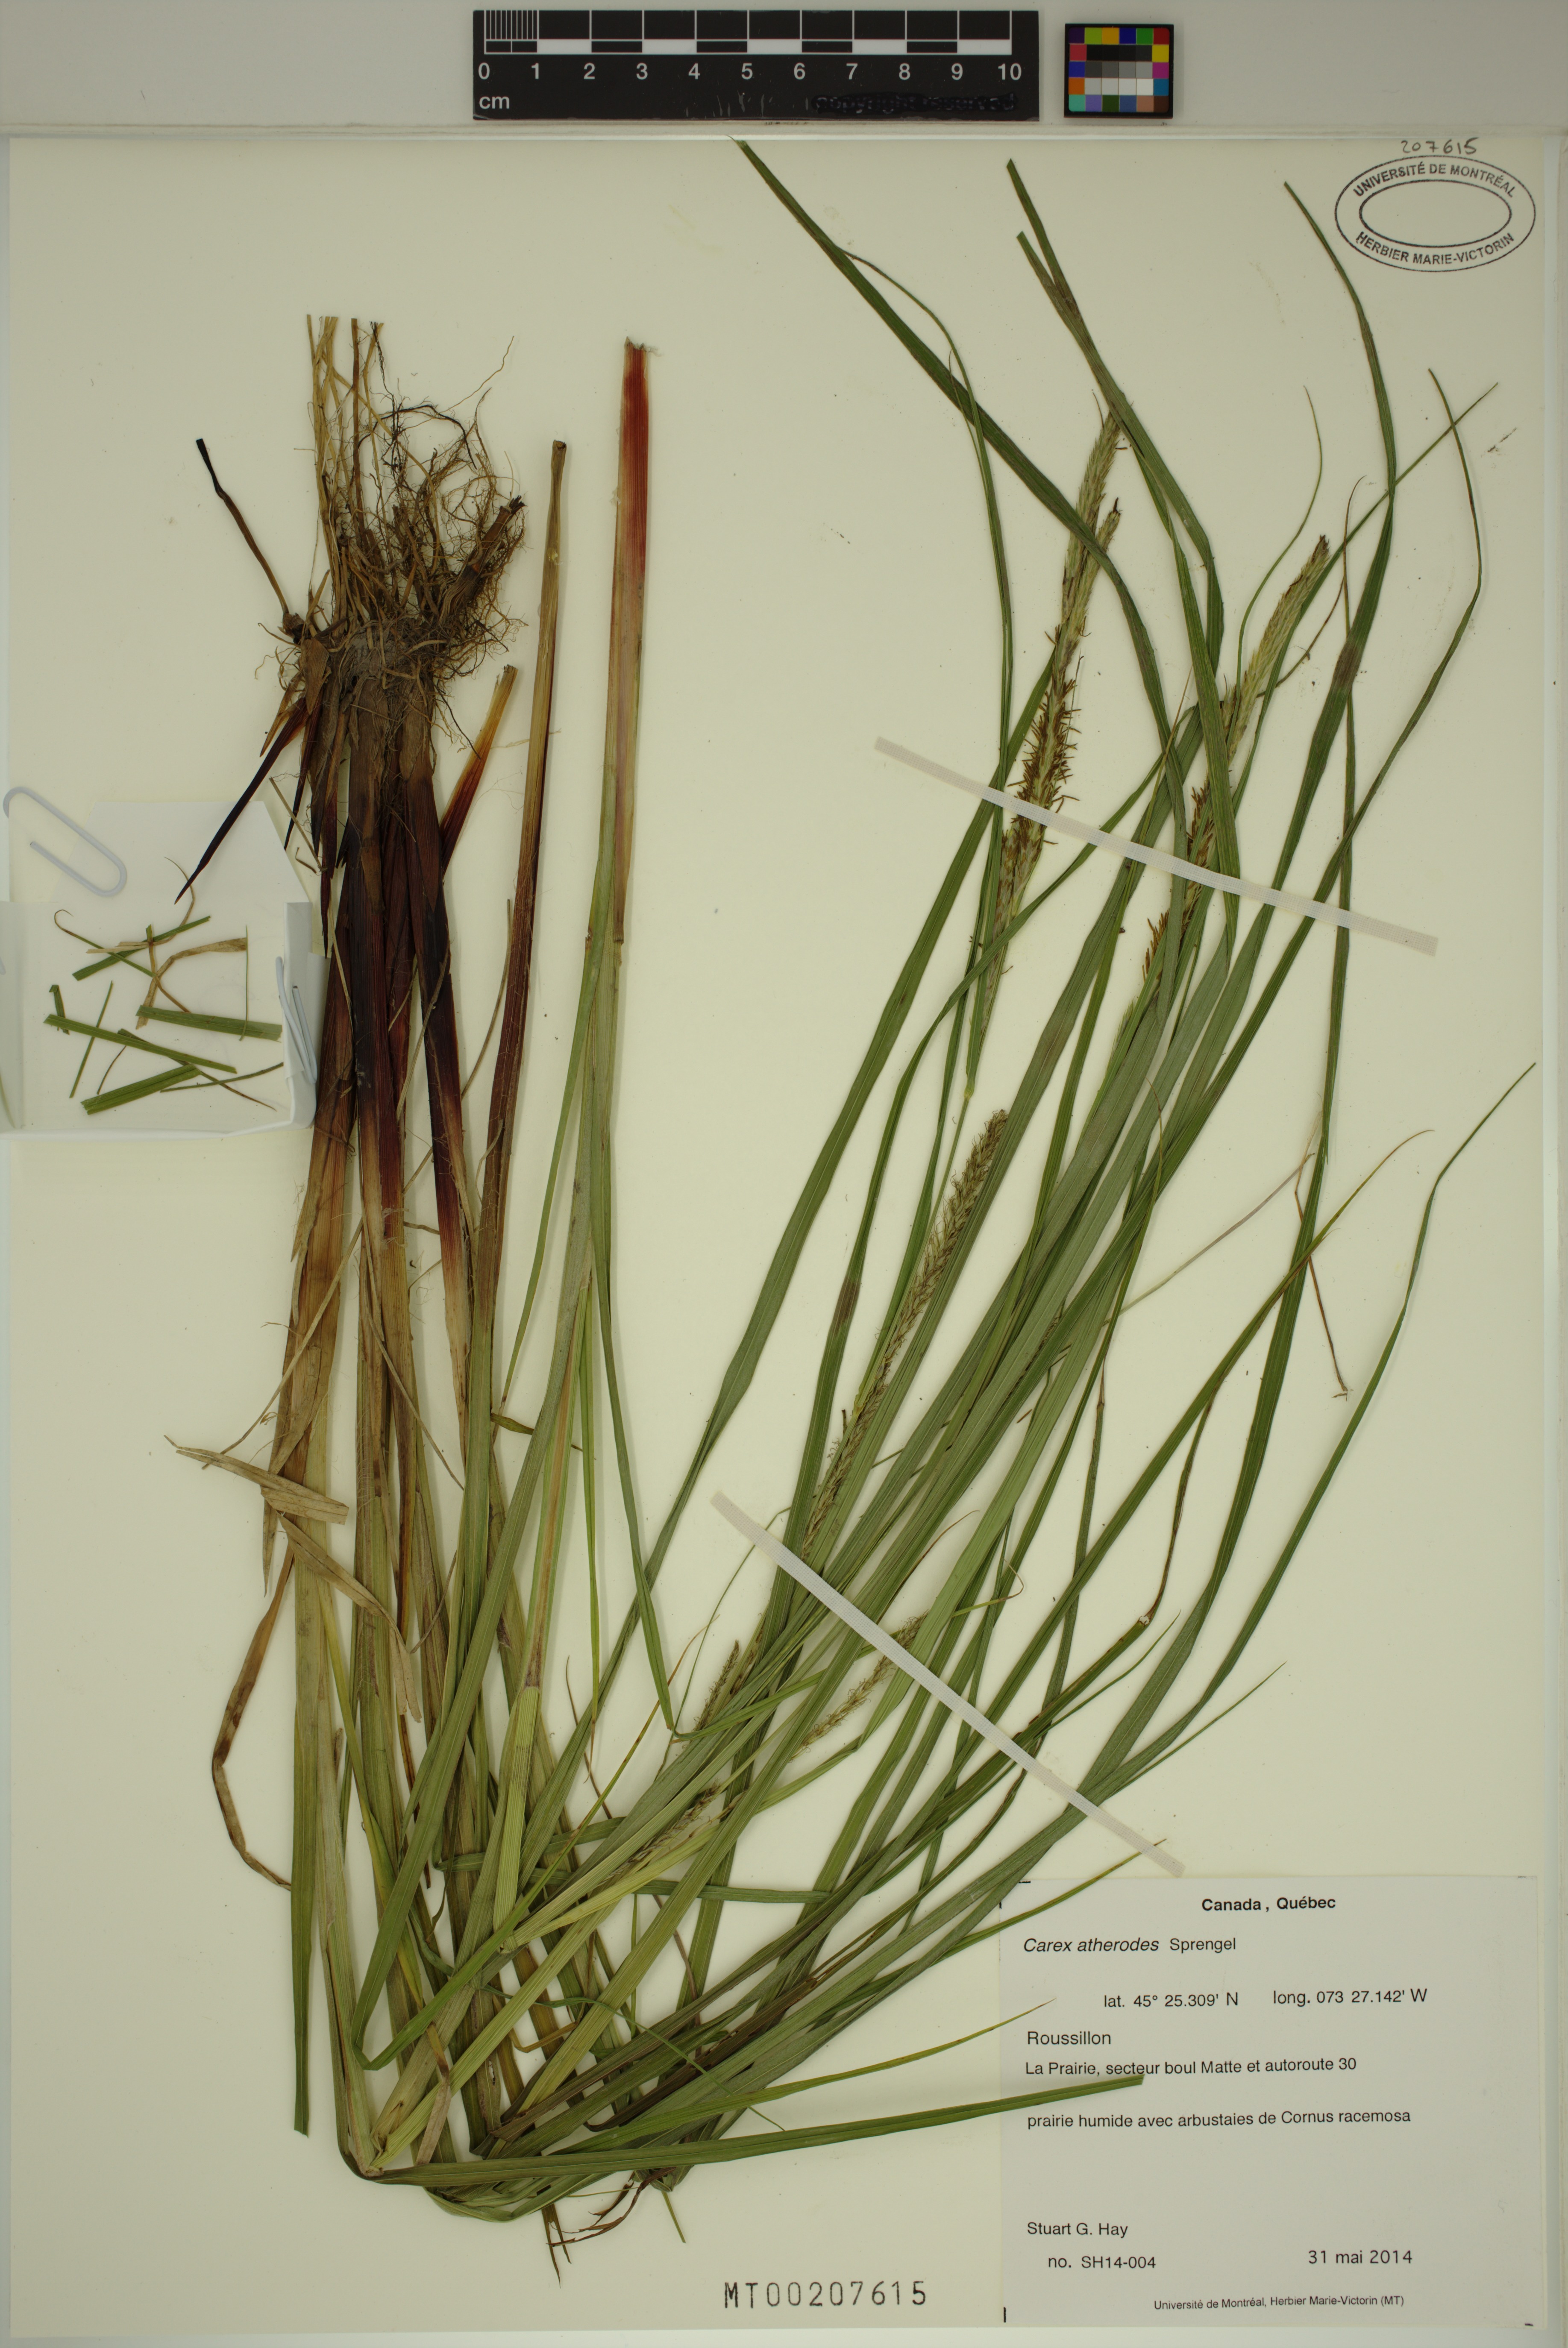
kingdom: Plantae
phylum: Tracheophyta
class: Liliopsida
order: Poales
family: Cyperaceae
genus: Carex
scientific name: Carex atherodes
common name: Wheat sedge
